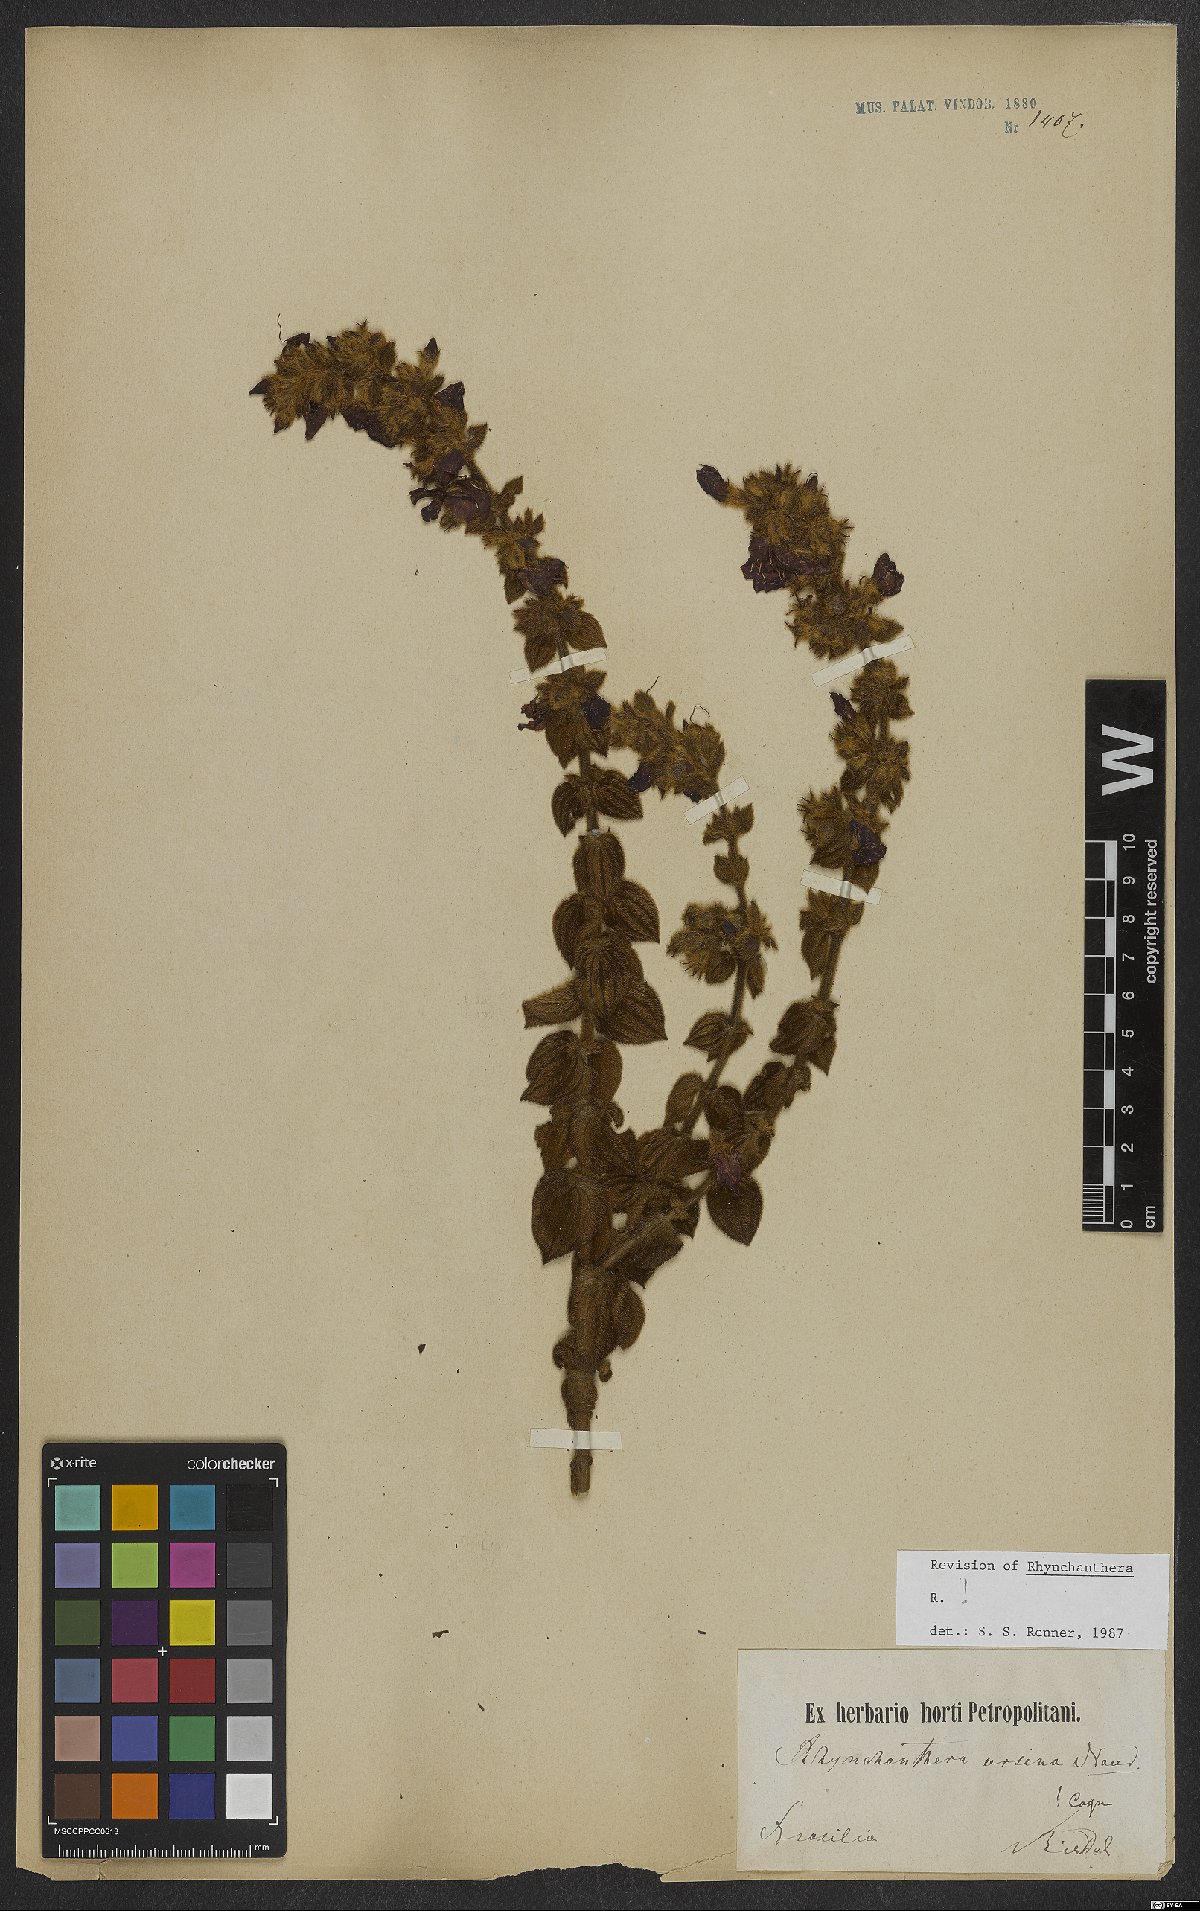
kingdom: Plantae
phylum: Tracheophyta
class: Magnoliopsida
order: Myrtales
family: Melastomataceae
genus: Rhynchanthera
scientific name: Rhynchanthera ursina
